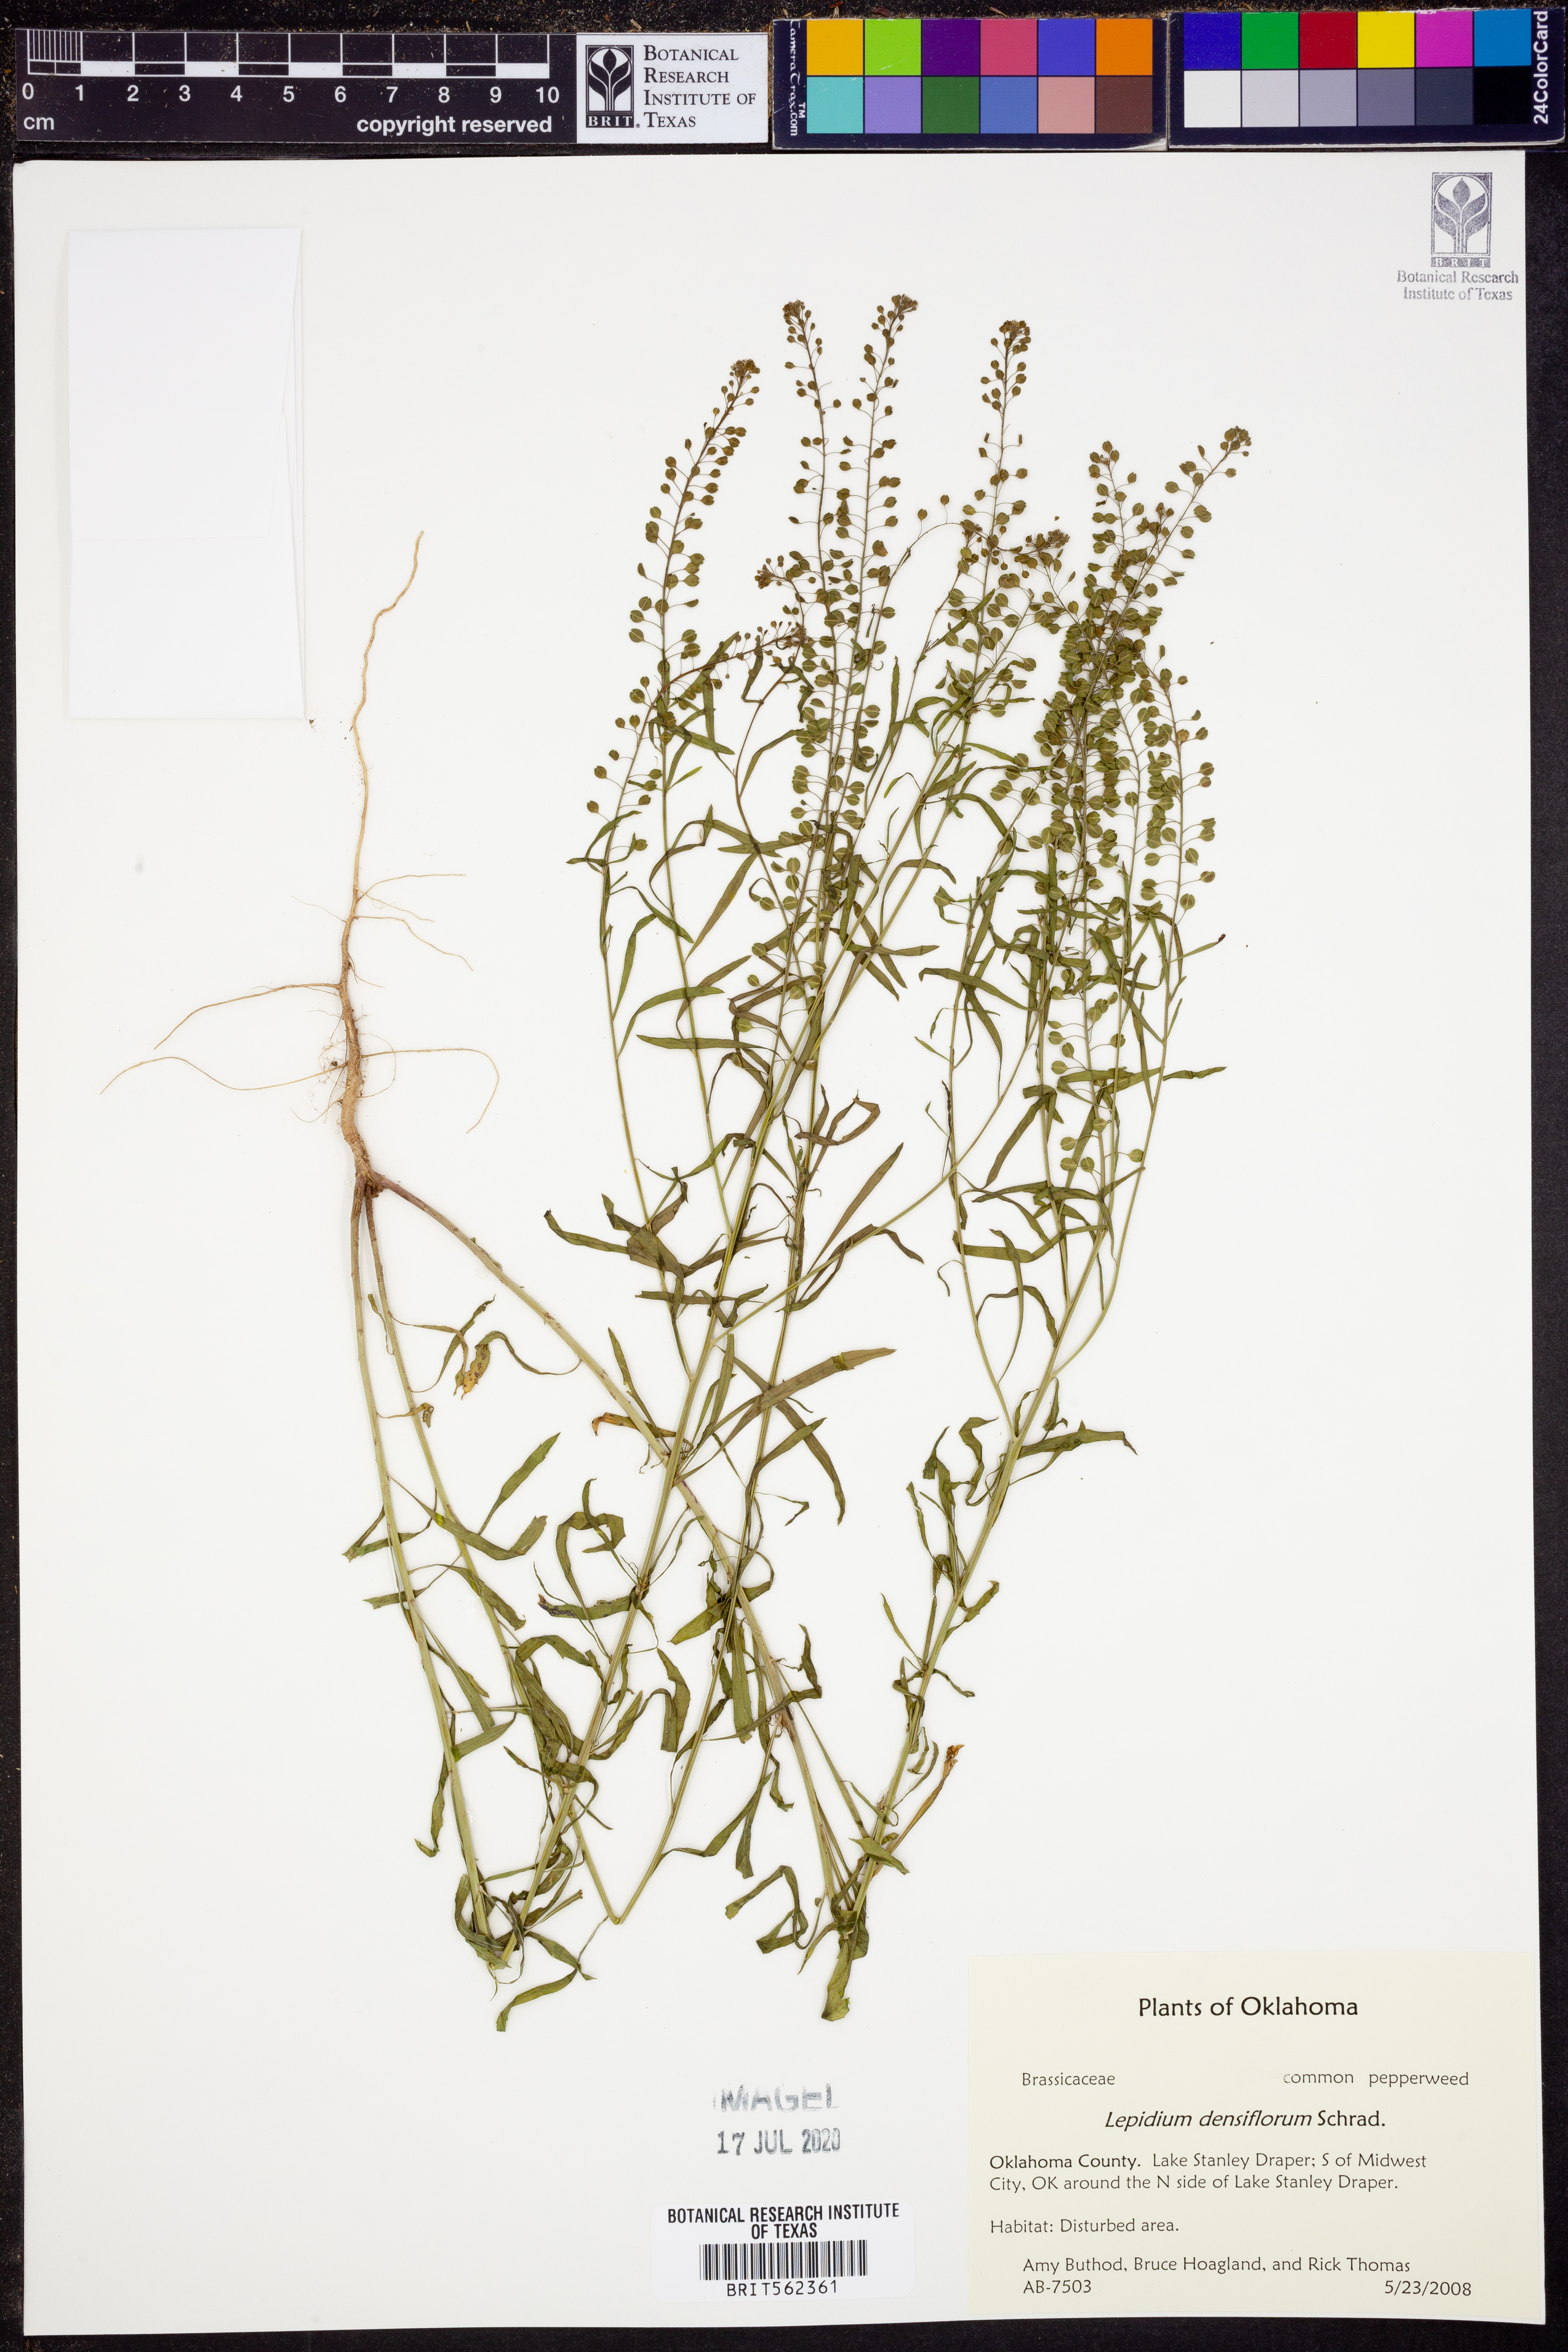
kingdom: Plantae
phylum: Tracheophyta
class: Magnoliopsida
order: Brassicales
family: Brassicaceae
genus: Lepidium
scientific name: Lepidium densiflorum
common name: Miner's pepperwort
